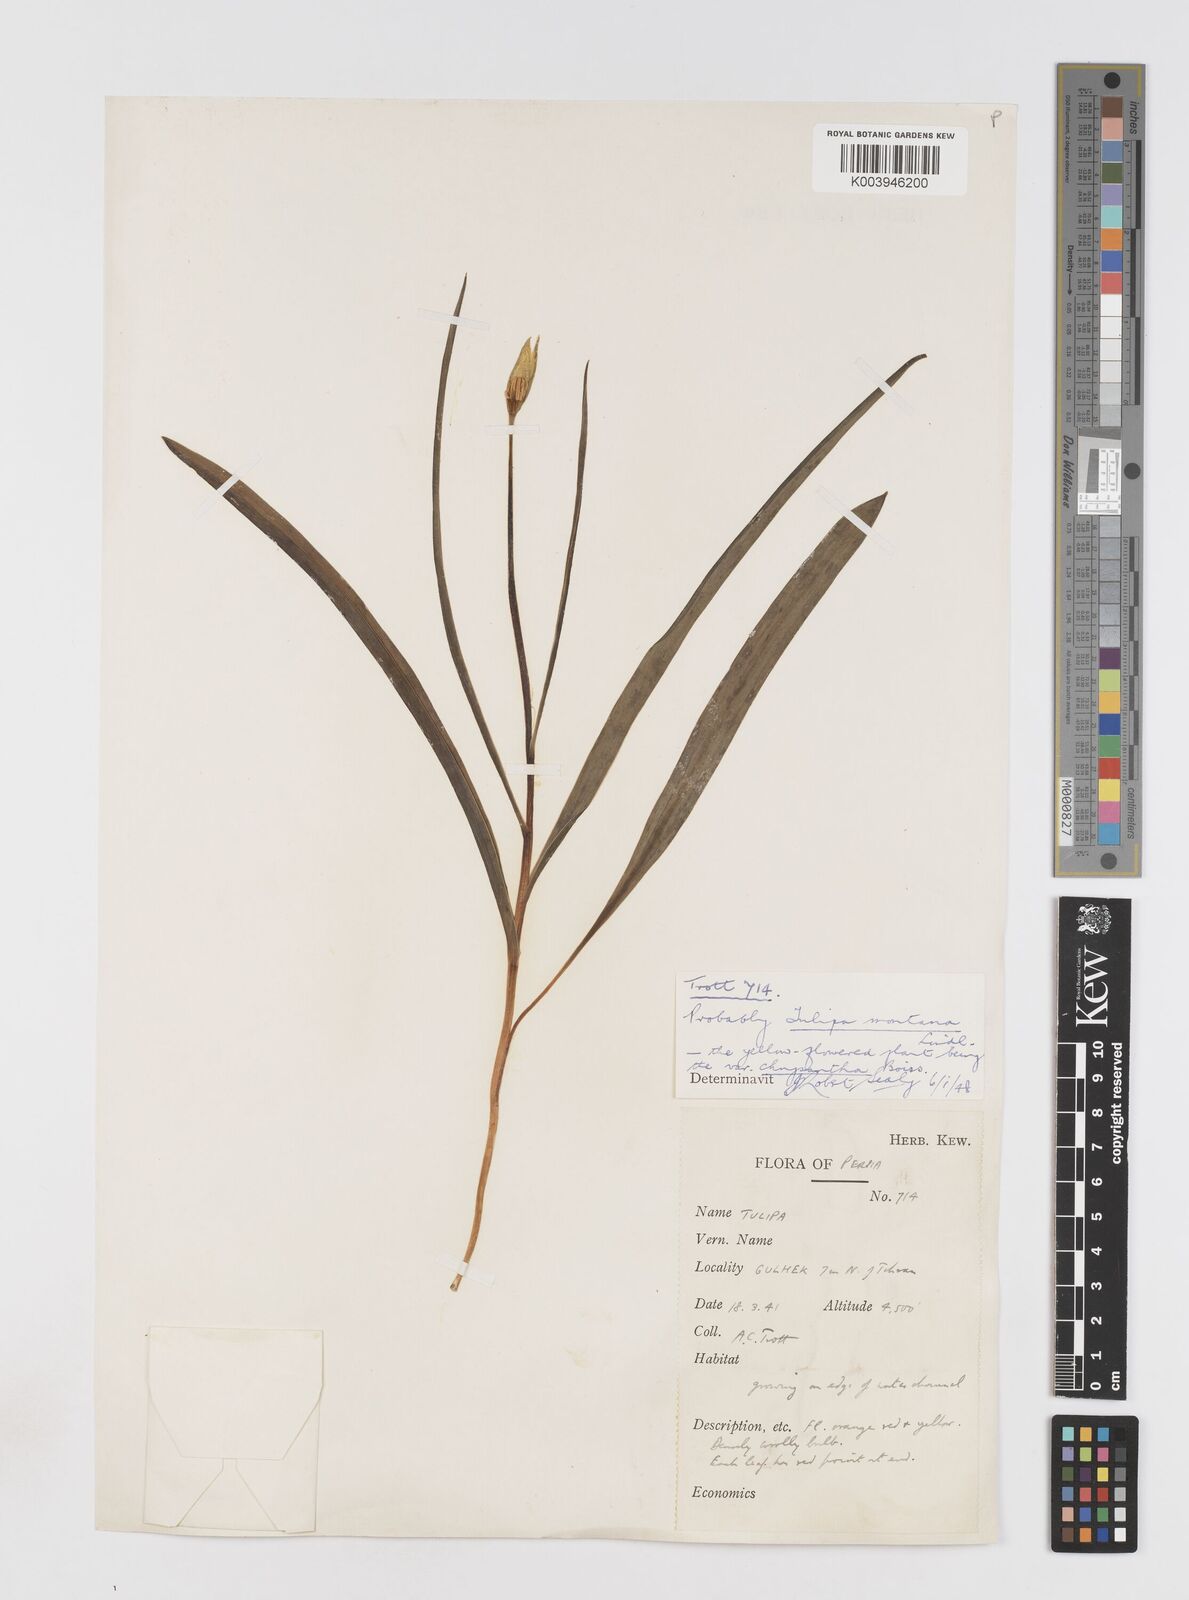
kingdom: Plantae
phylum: Tracheophyta
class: Liliopsida
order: Liliales
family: Liliaceae
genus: Tulipa
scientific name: Tulipa montana
